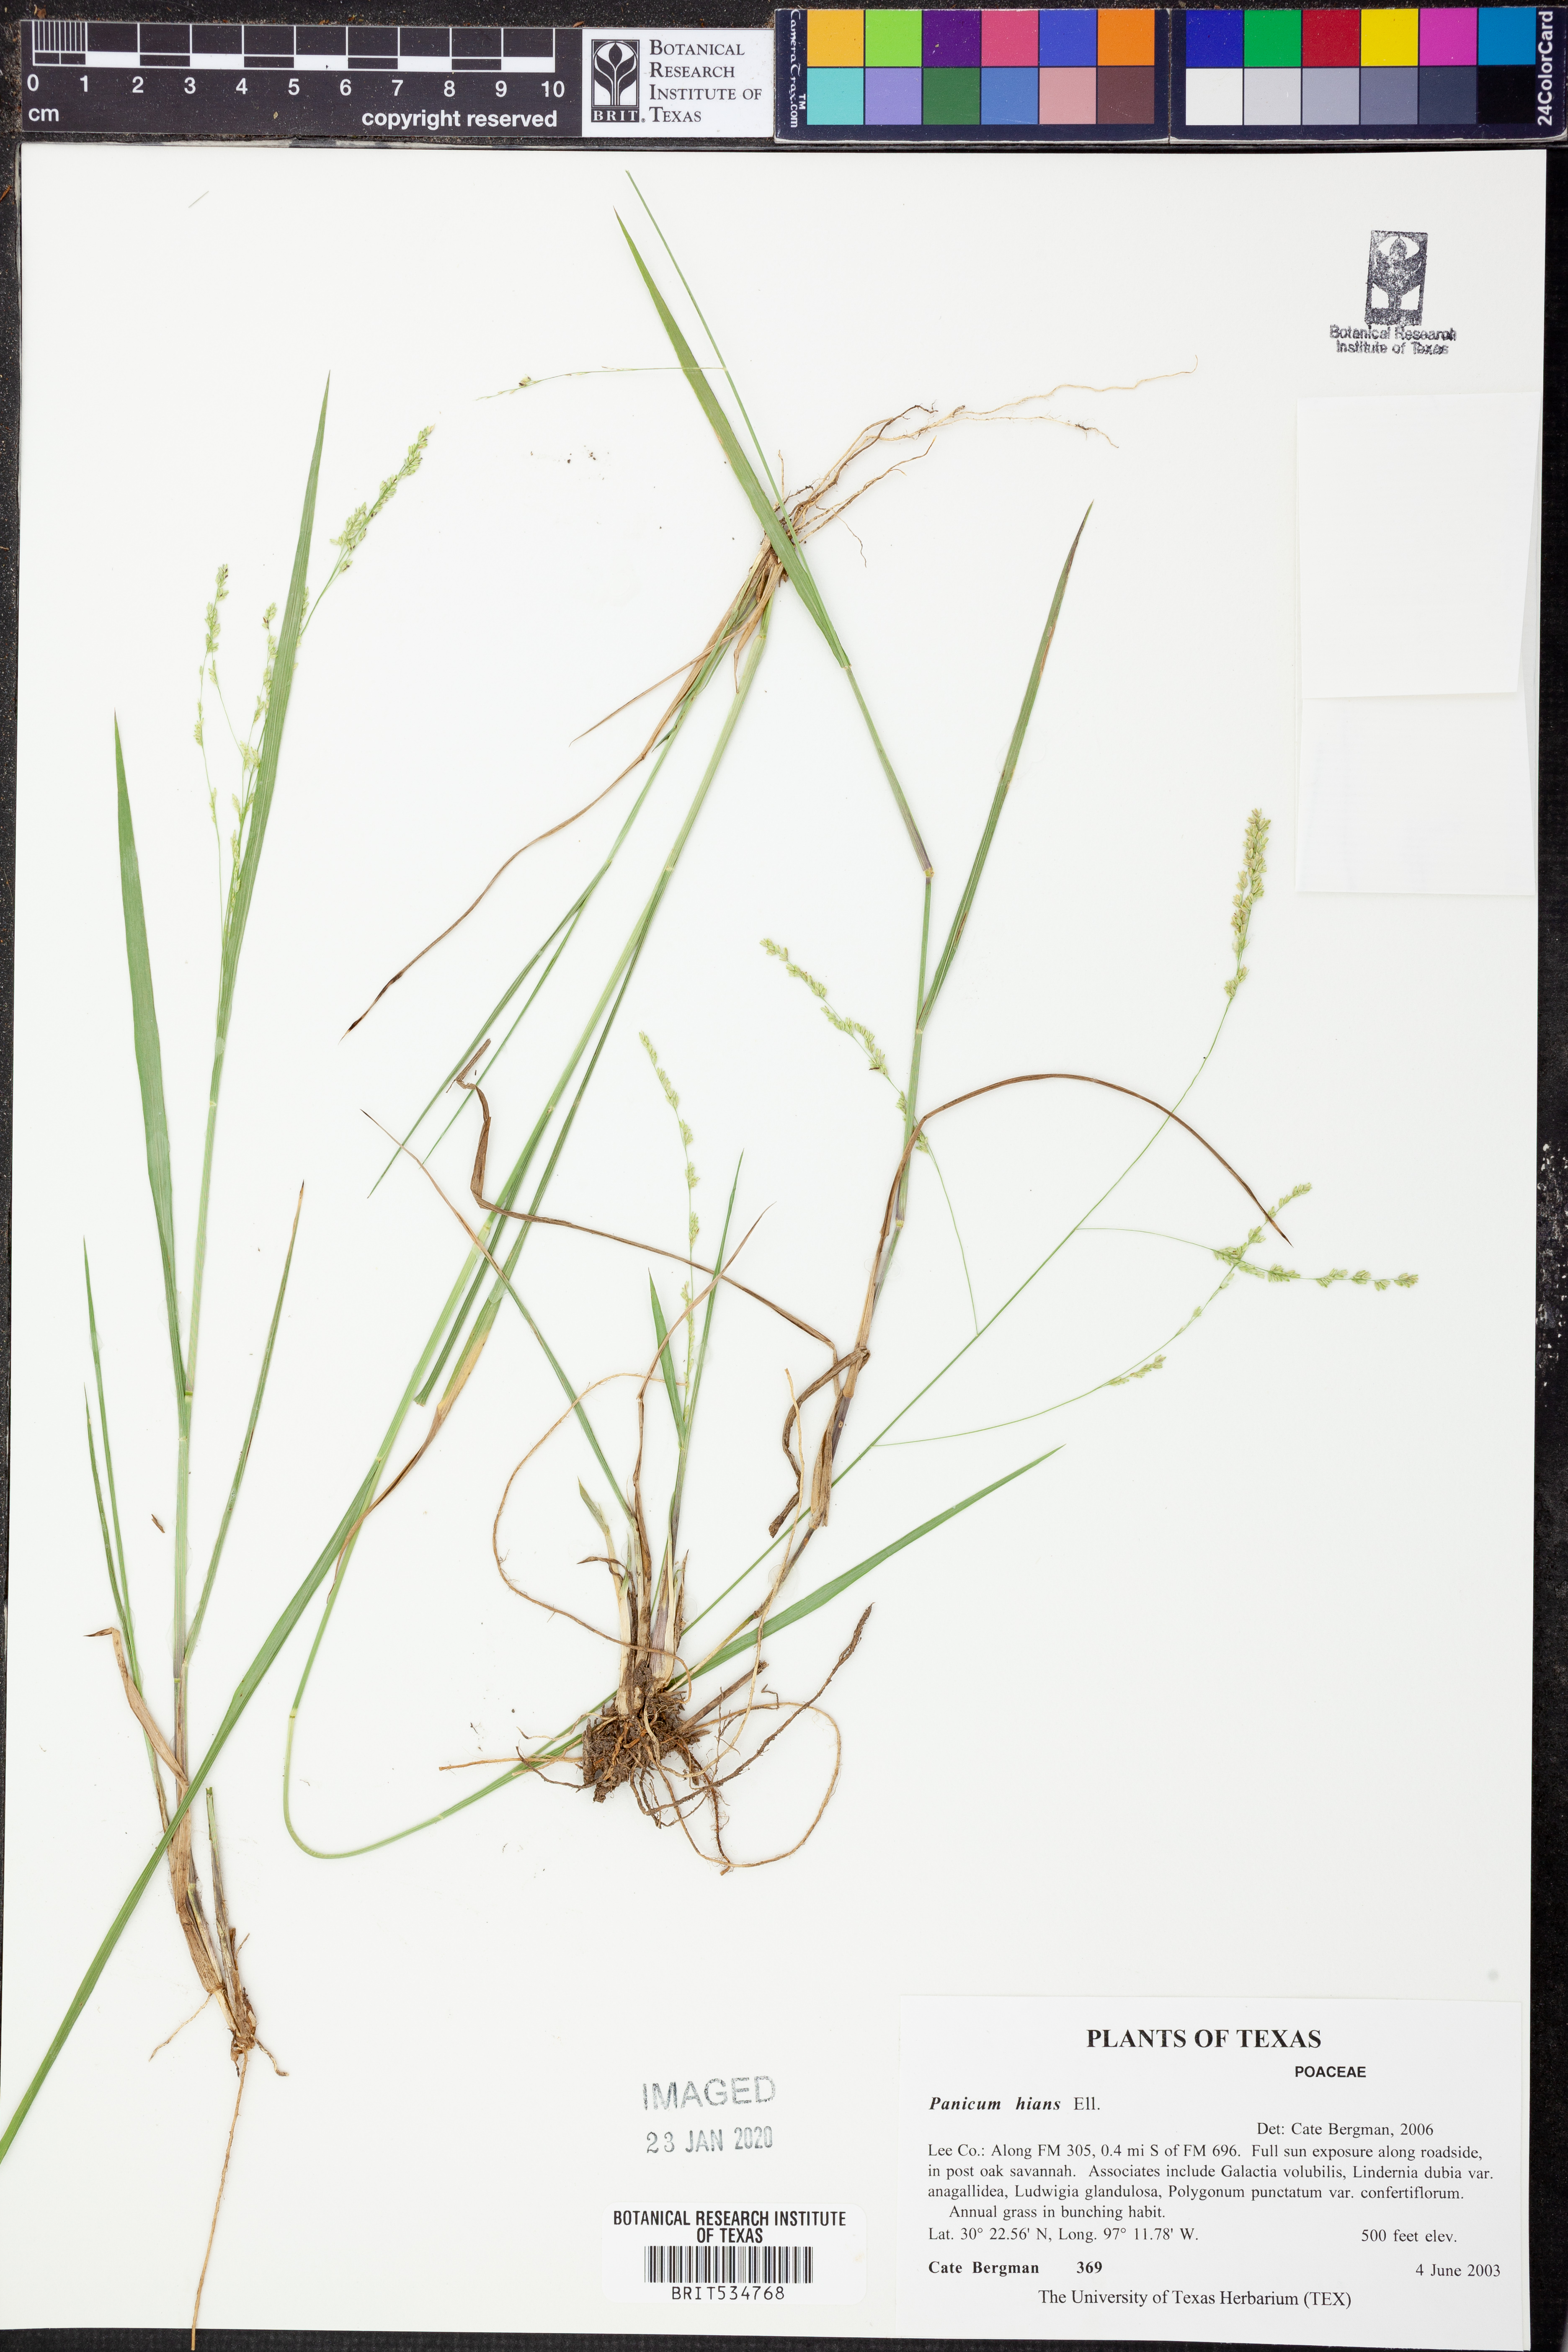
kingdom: Plantae
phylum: Tracheophyta
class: Liliopsida
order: Poales
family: Poaceae
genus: Coleataenia
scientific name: Coleataenia stenodes
